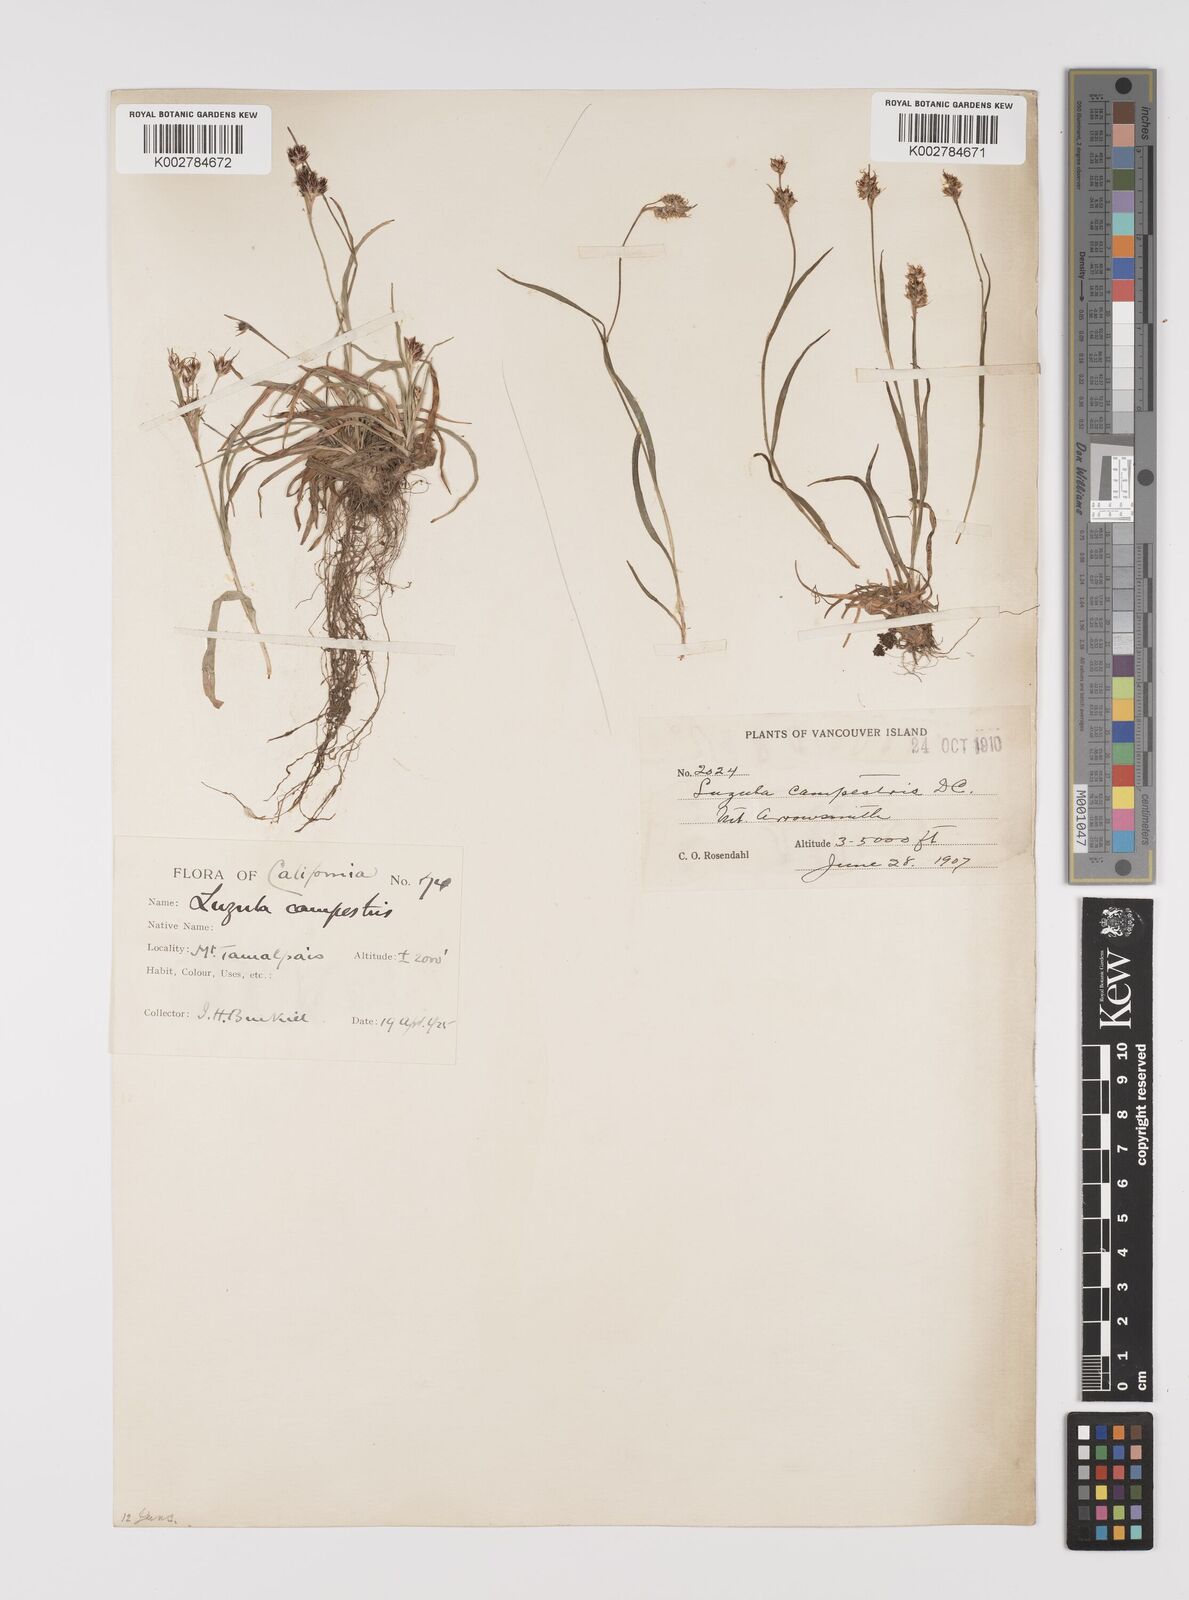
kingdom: Plantae
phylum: Tracheophyta
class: Liliopsida
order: Poales
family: Juncaceae
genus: Luzula
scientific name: Luzula campestris
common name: Field wood-rush
